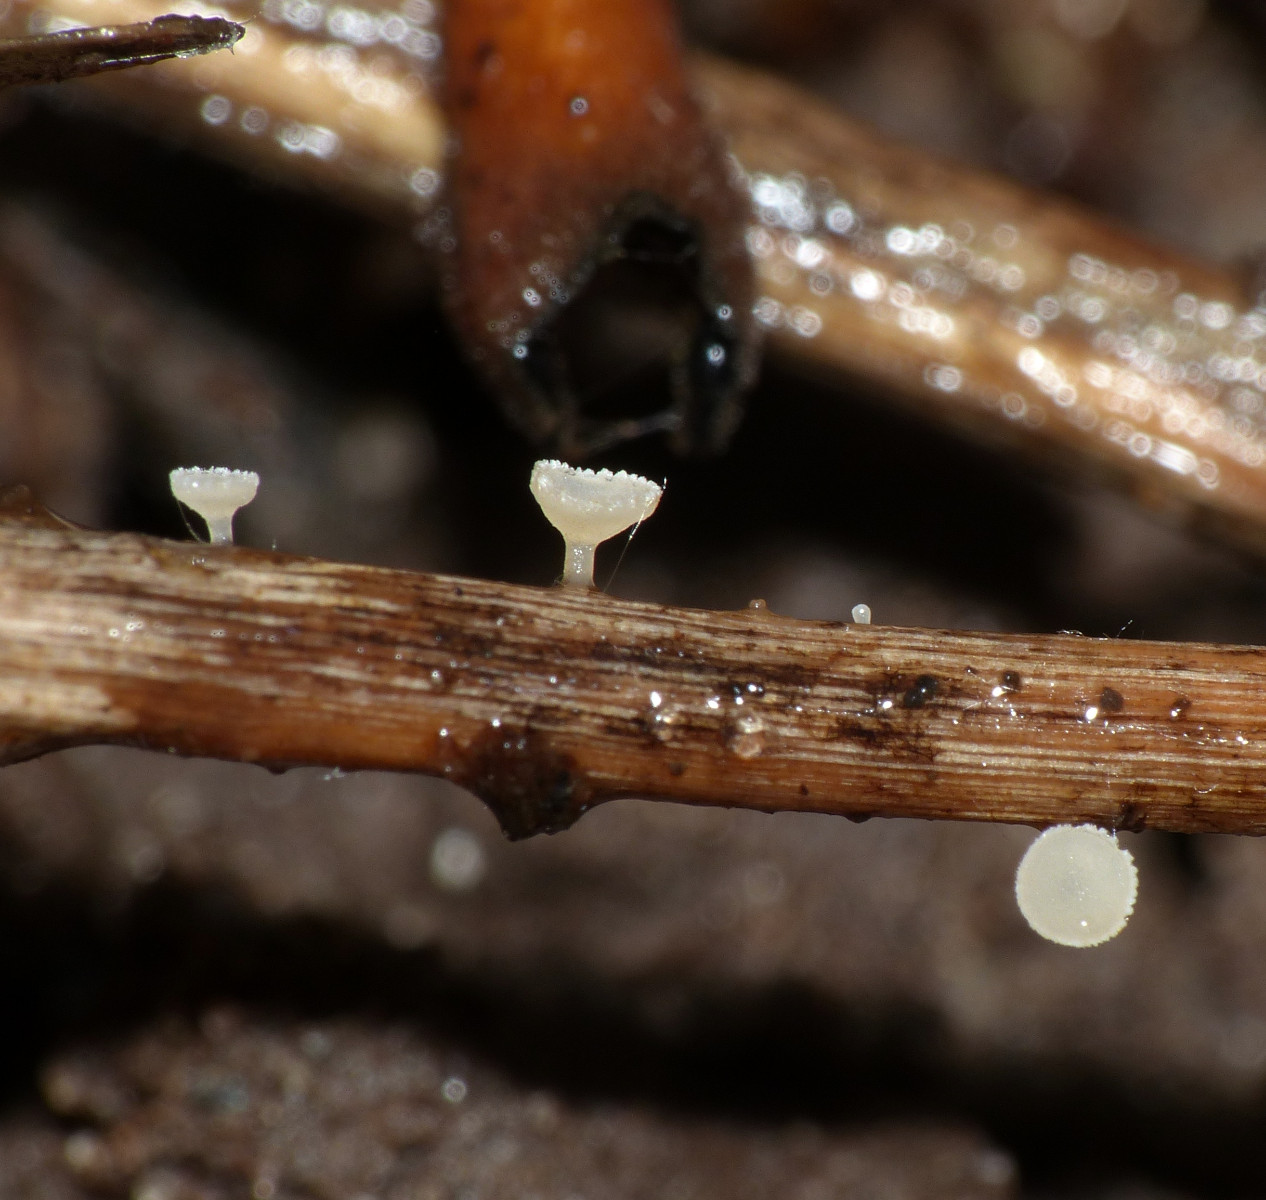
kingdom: Fungi
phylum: Ascomycota
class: Leotiomycetes
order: Helotiales
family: Helotiaceae
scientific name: Helotiaceae
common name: stilkskivefamilien
